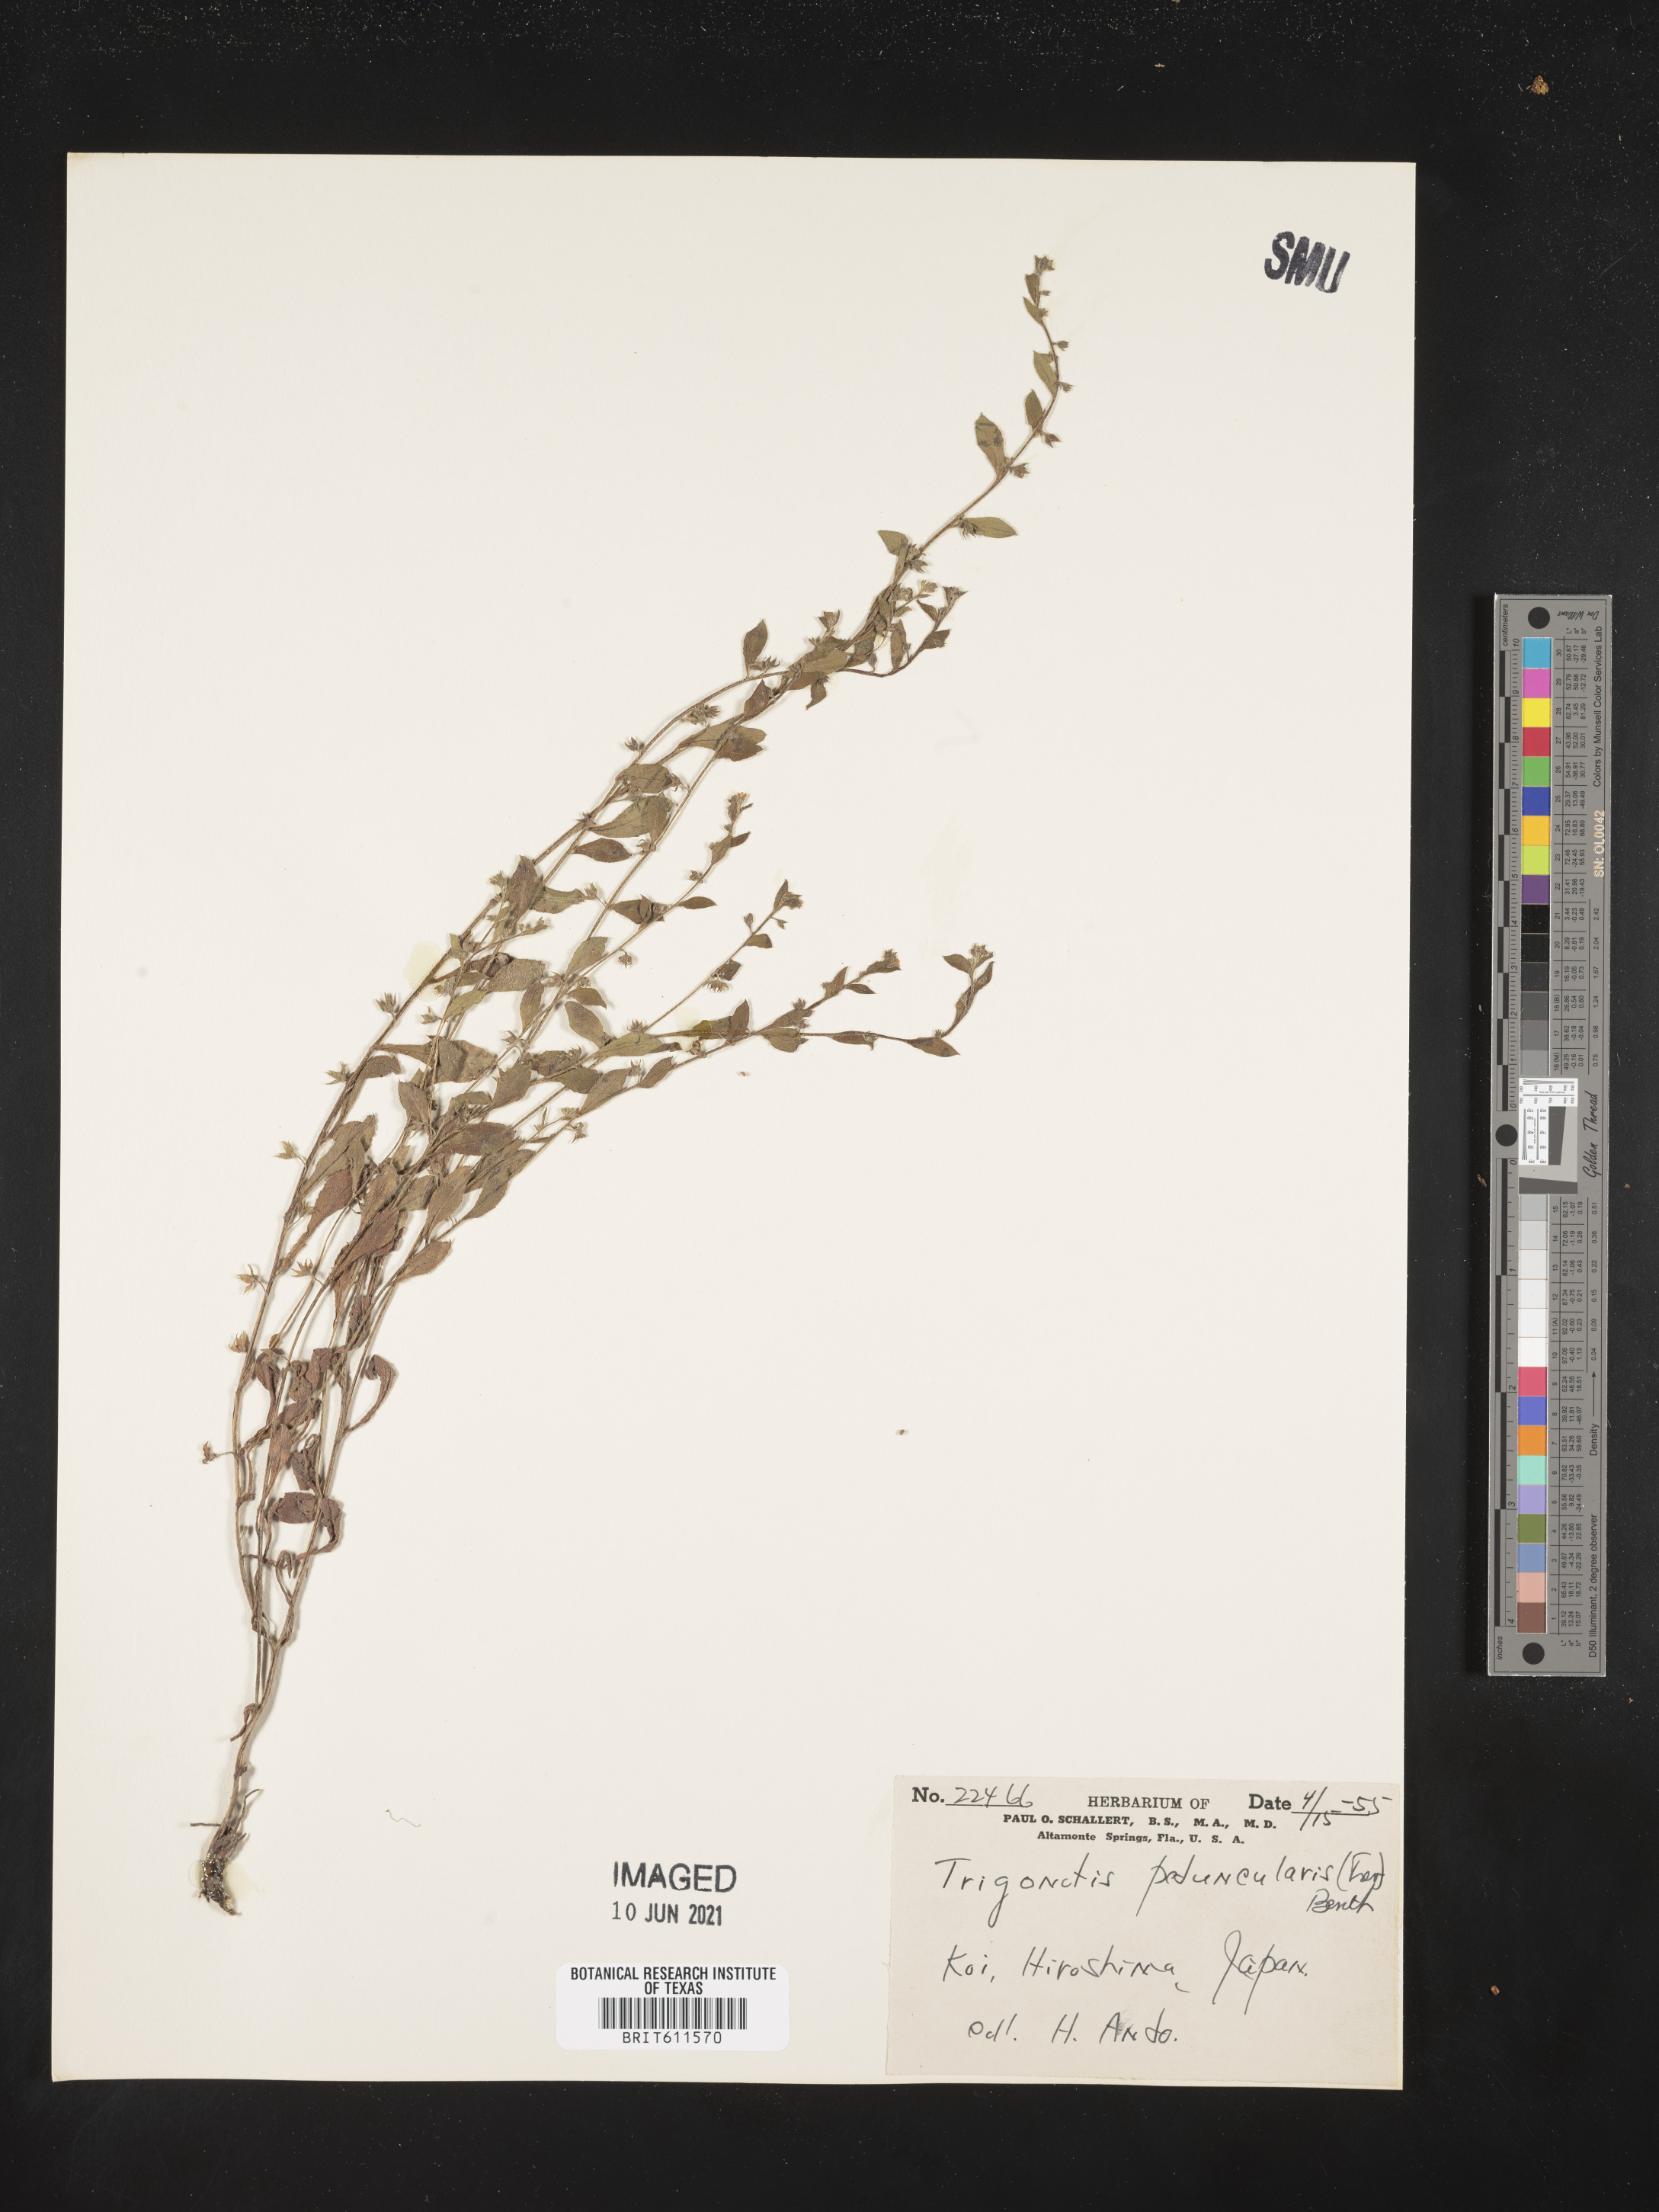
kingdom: Plantae
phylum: Tracheophyta
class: Magnoliopsida
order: Boraginales
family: Boraginaceae
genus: Trigonotis
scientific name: Trigonotis peduncularis
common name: Cucumber herb
